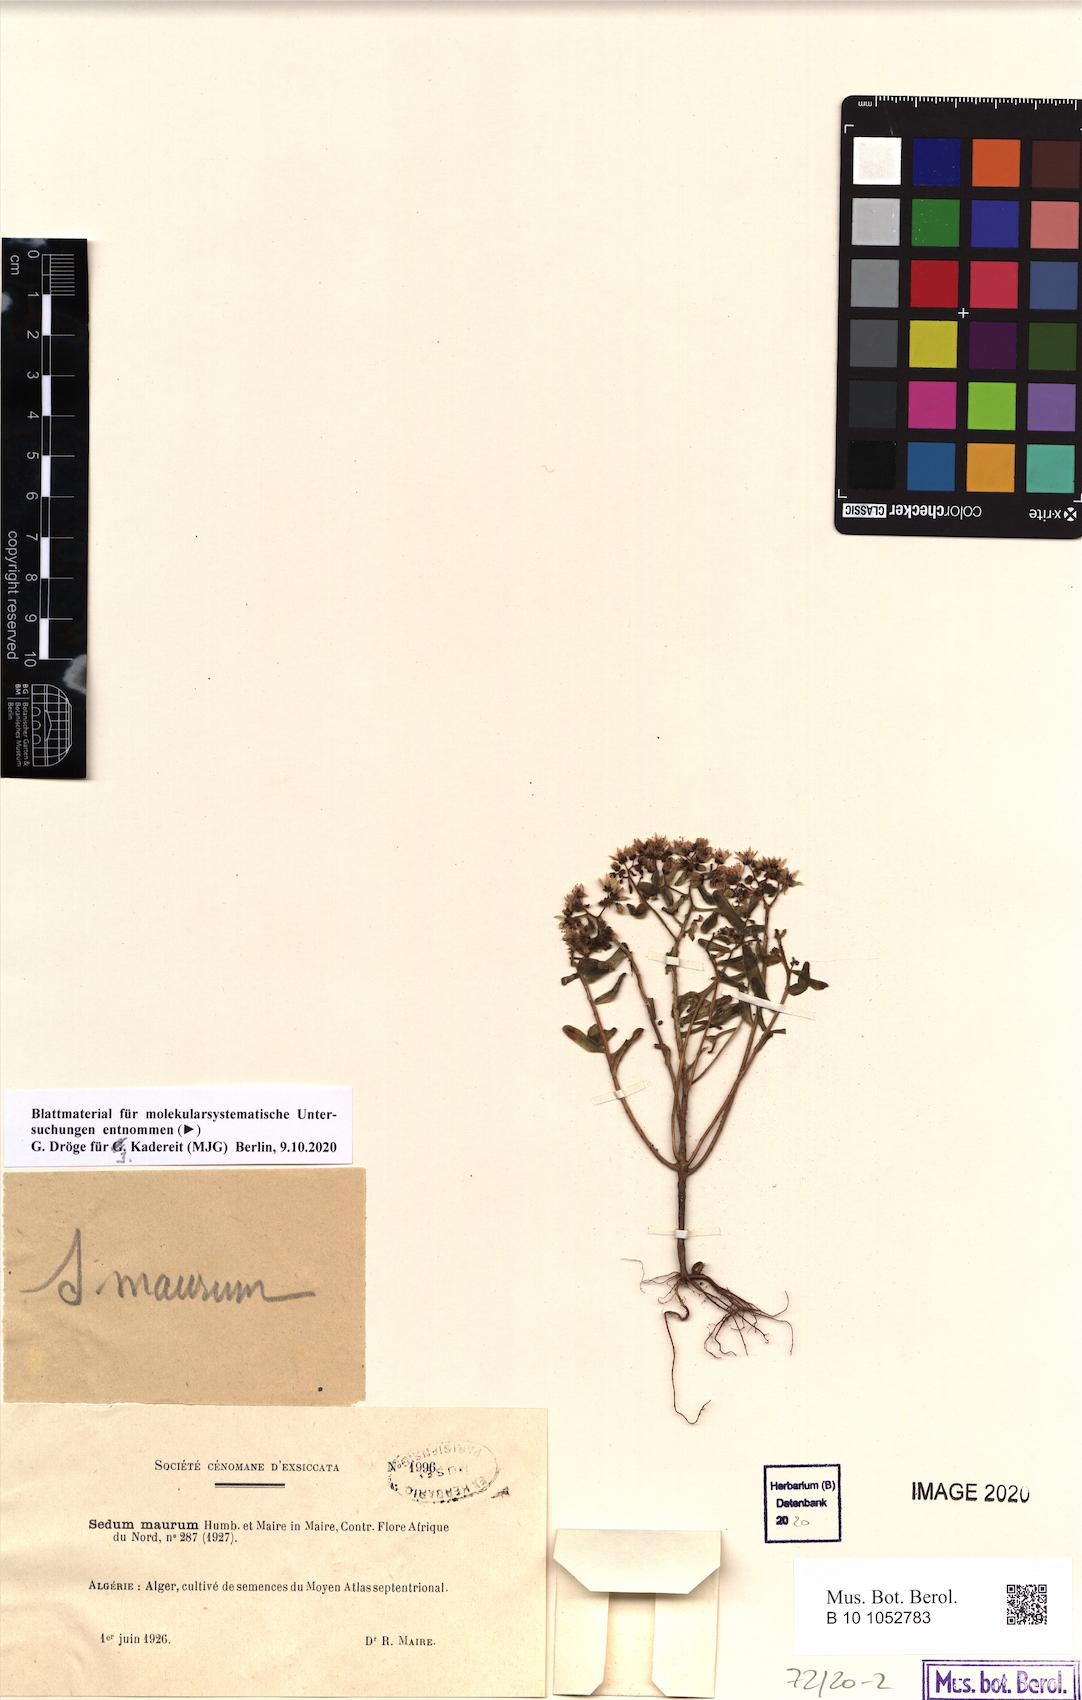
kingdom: Plantae
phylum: Tracheophyta
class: Magnoliopsida
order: Saxifragales
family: Crassulaceae
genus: Sedum
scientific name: Sedum maurum
